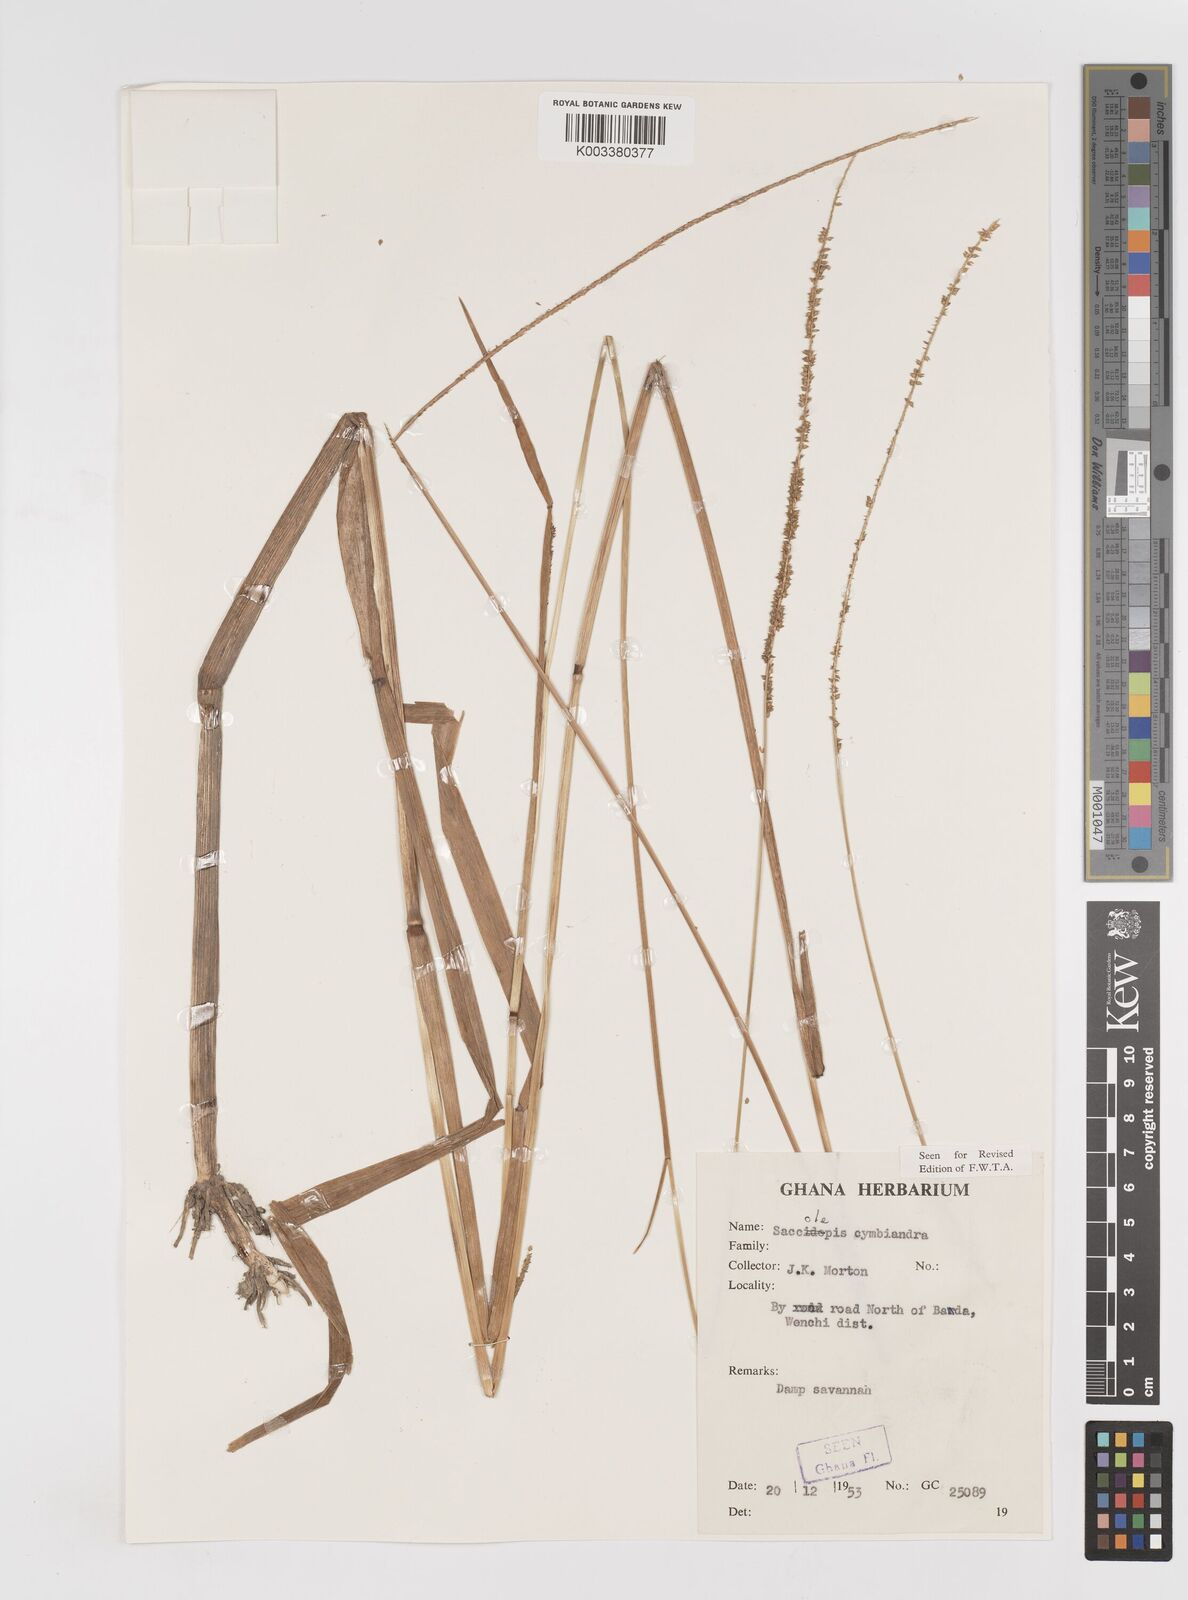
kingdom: Plantae
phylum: Tracheophyta
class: Liliopsida
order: Poales
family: Poaceae
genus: Sacciolepis
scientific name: Sacciolepis cymbiandra
